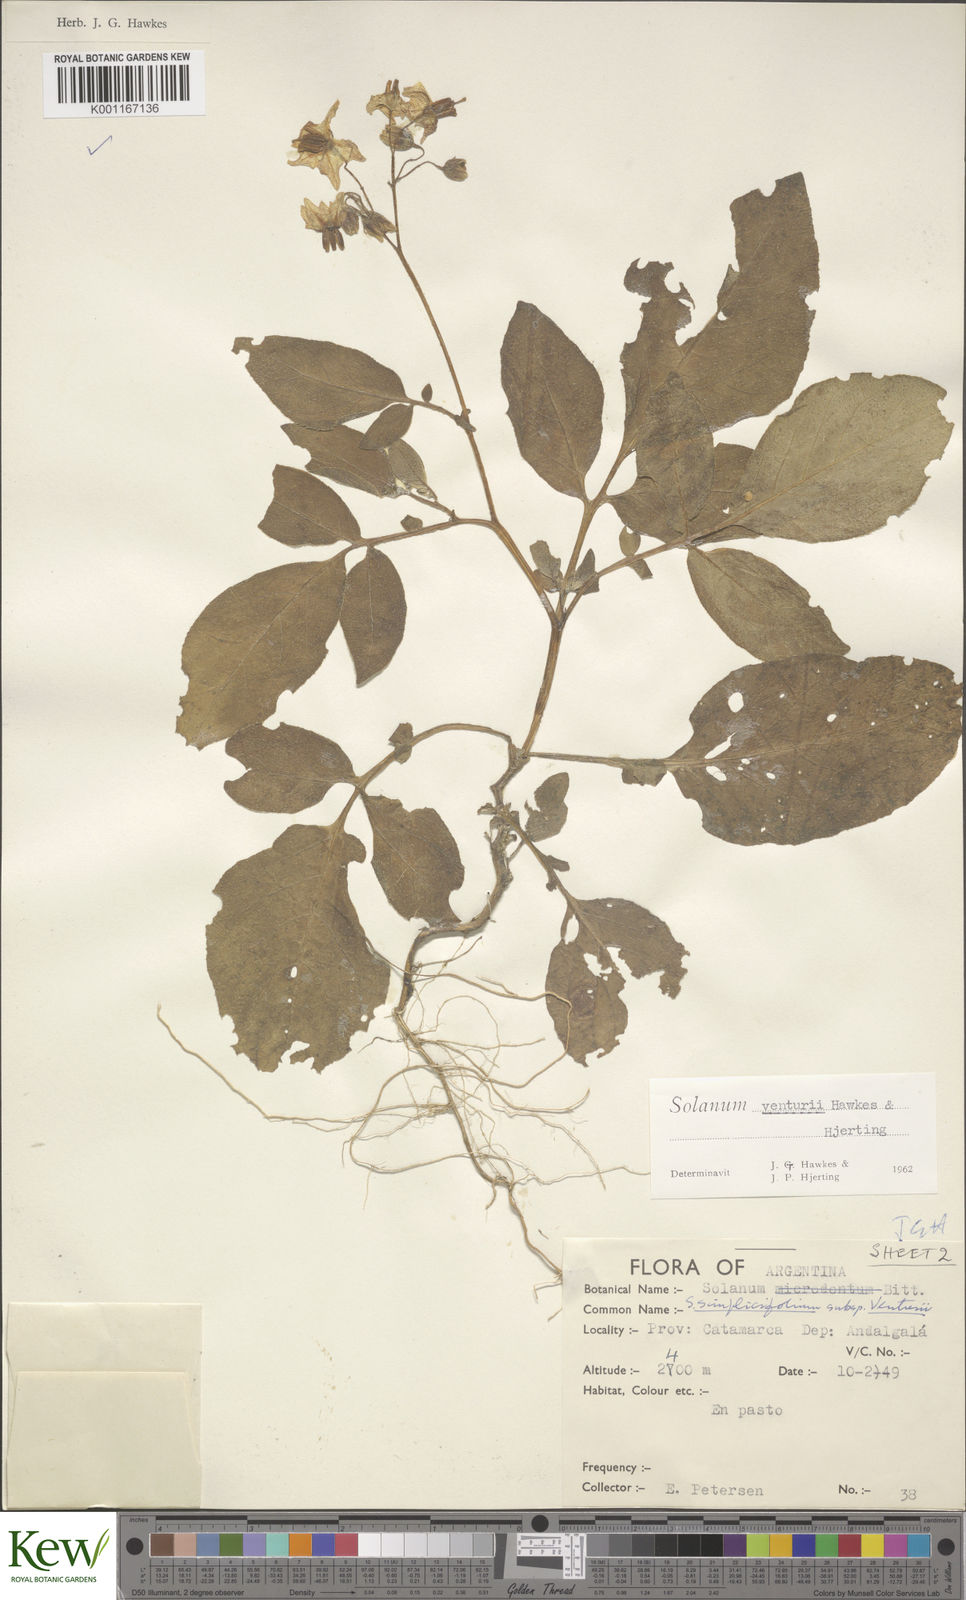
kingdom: Plantae
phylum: Tracheophyta
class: Magnoliopsida
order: Solanales
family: Solanaceae
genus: Solanum
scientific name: Solanum venturii
